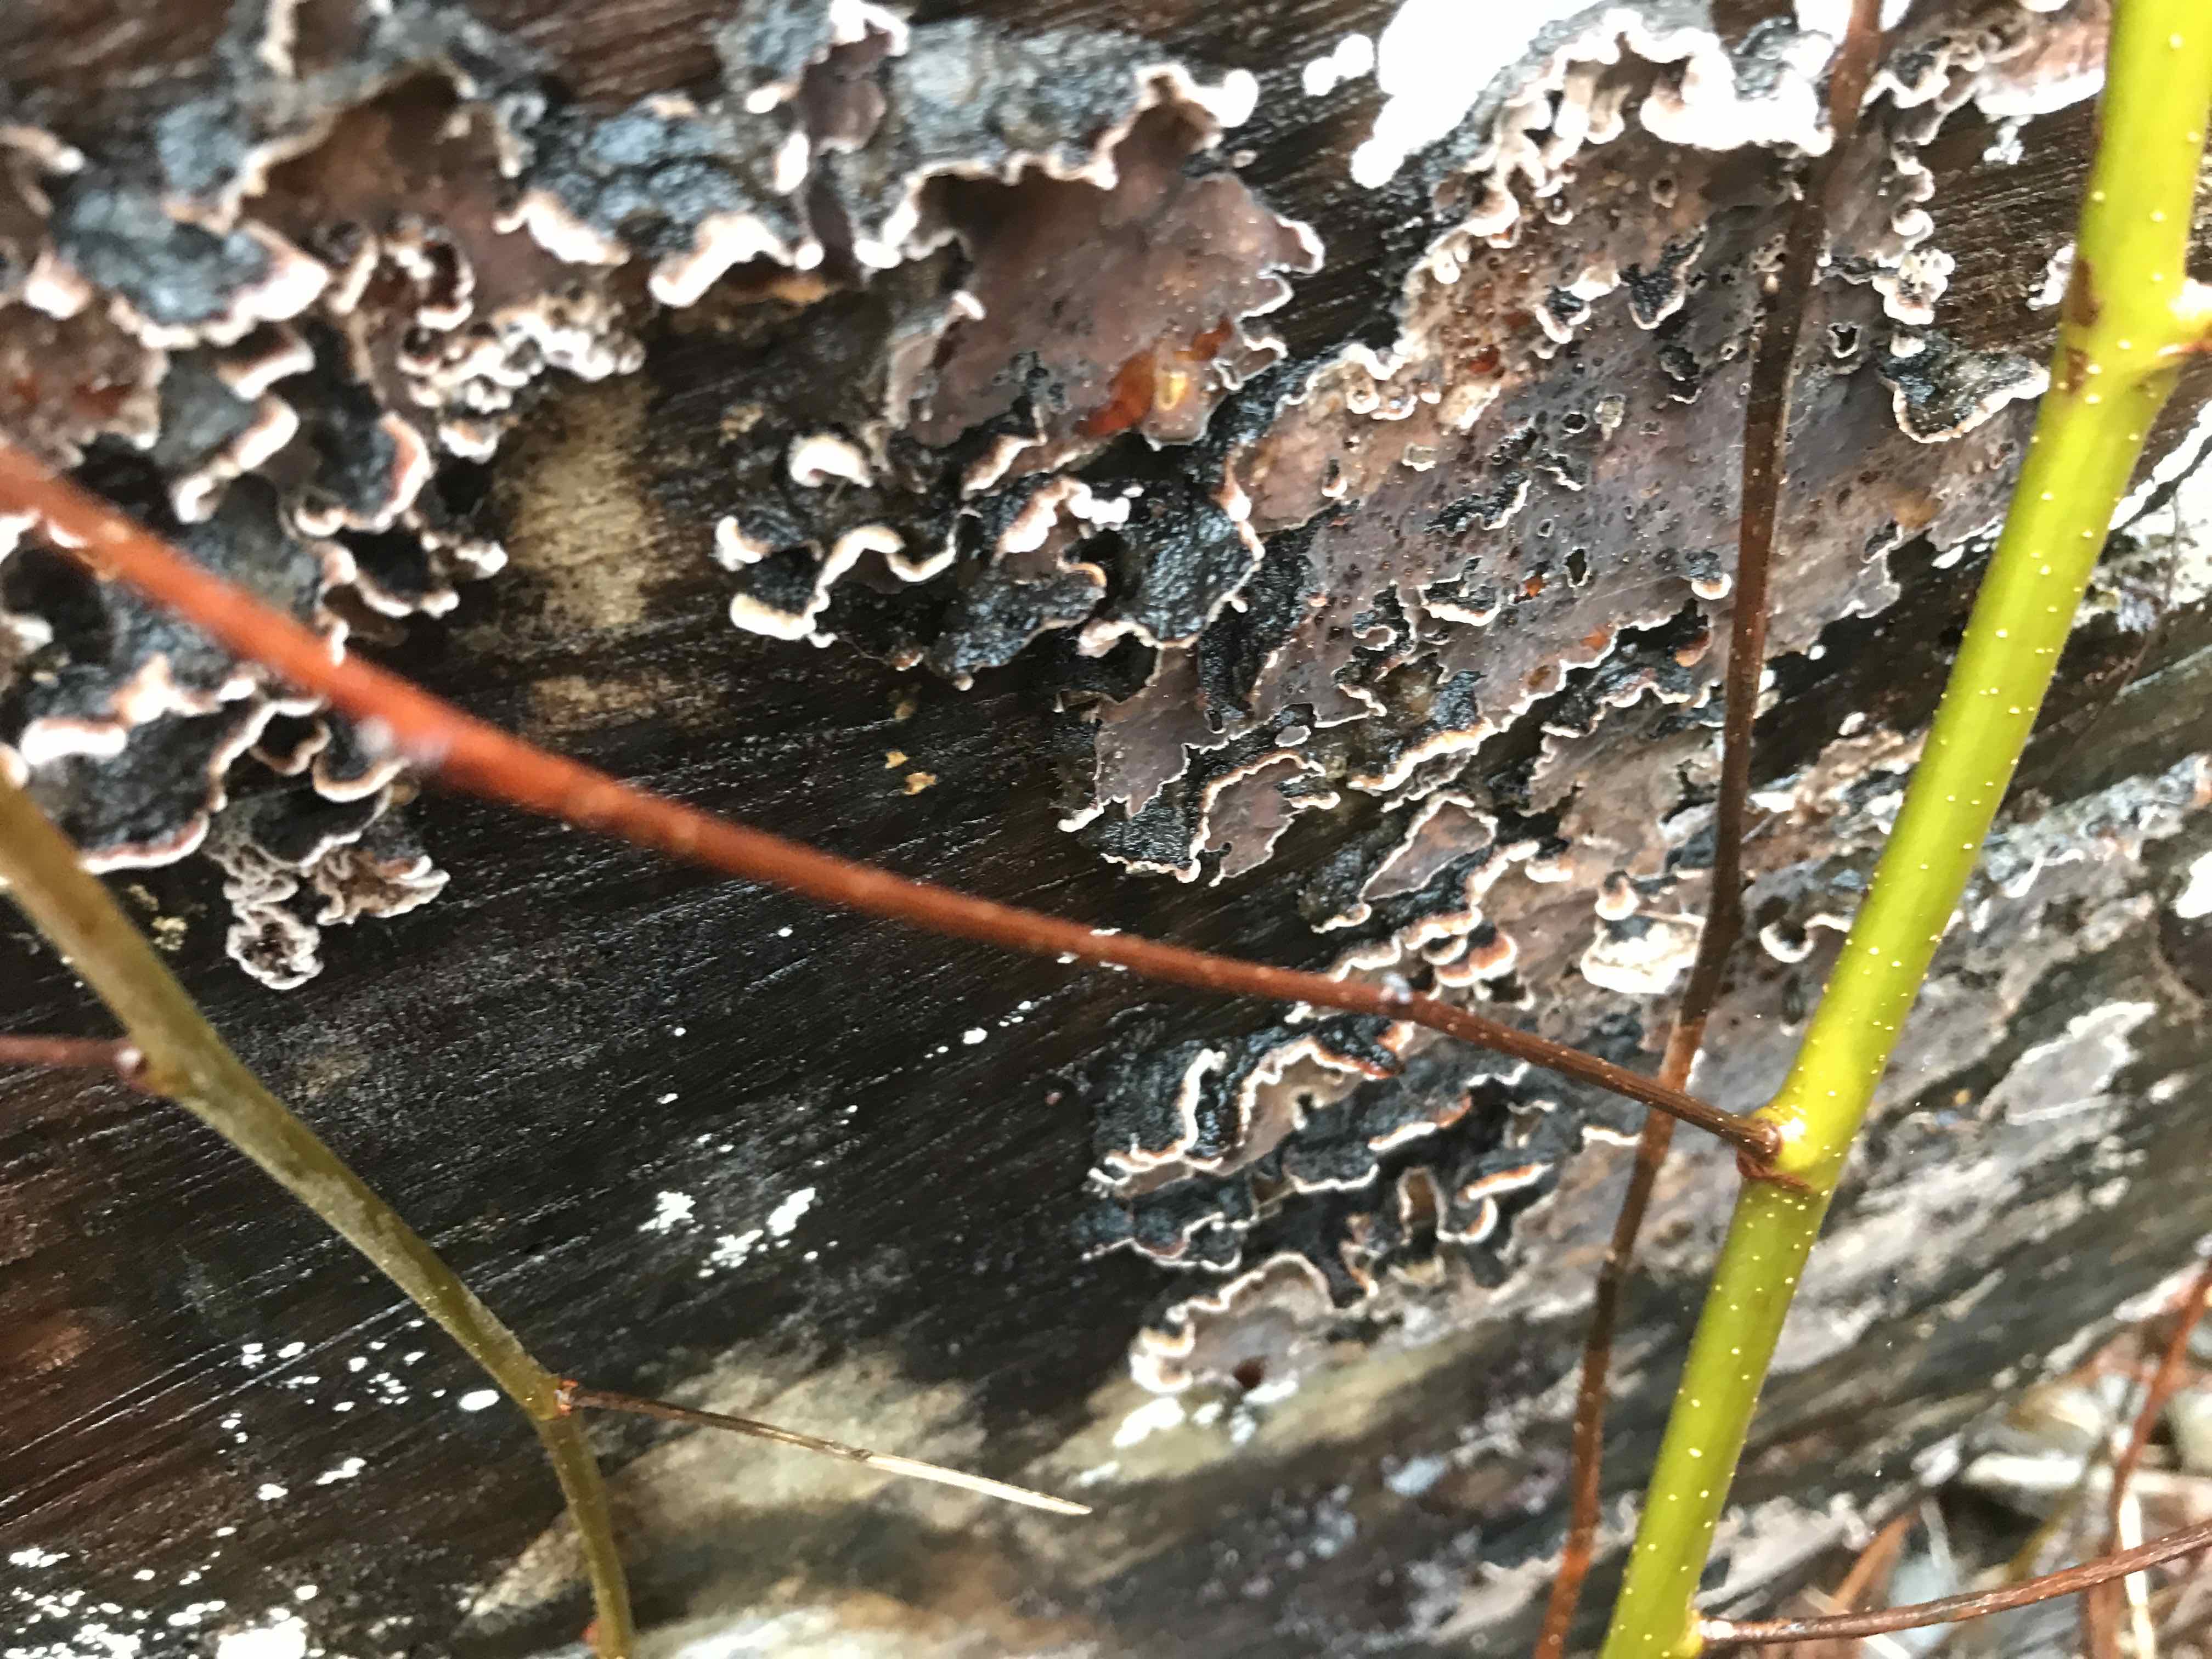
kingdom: Fungi
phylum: Basidiomycota
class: Agaricomycetes
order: Agaricales
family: Cyphellaceae
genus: Chondrostereum
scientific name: Chondrostereum purpureum
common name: purpurlædersvamp
